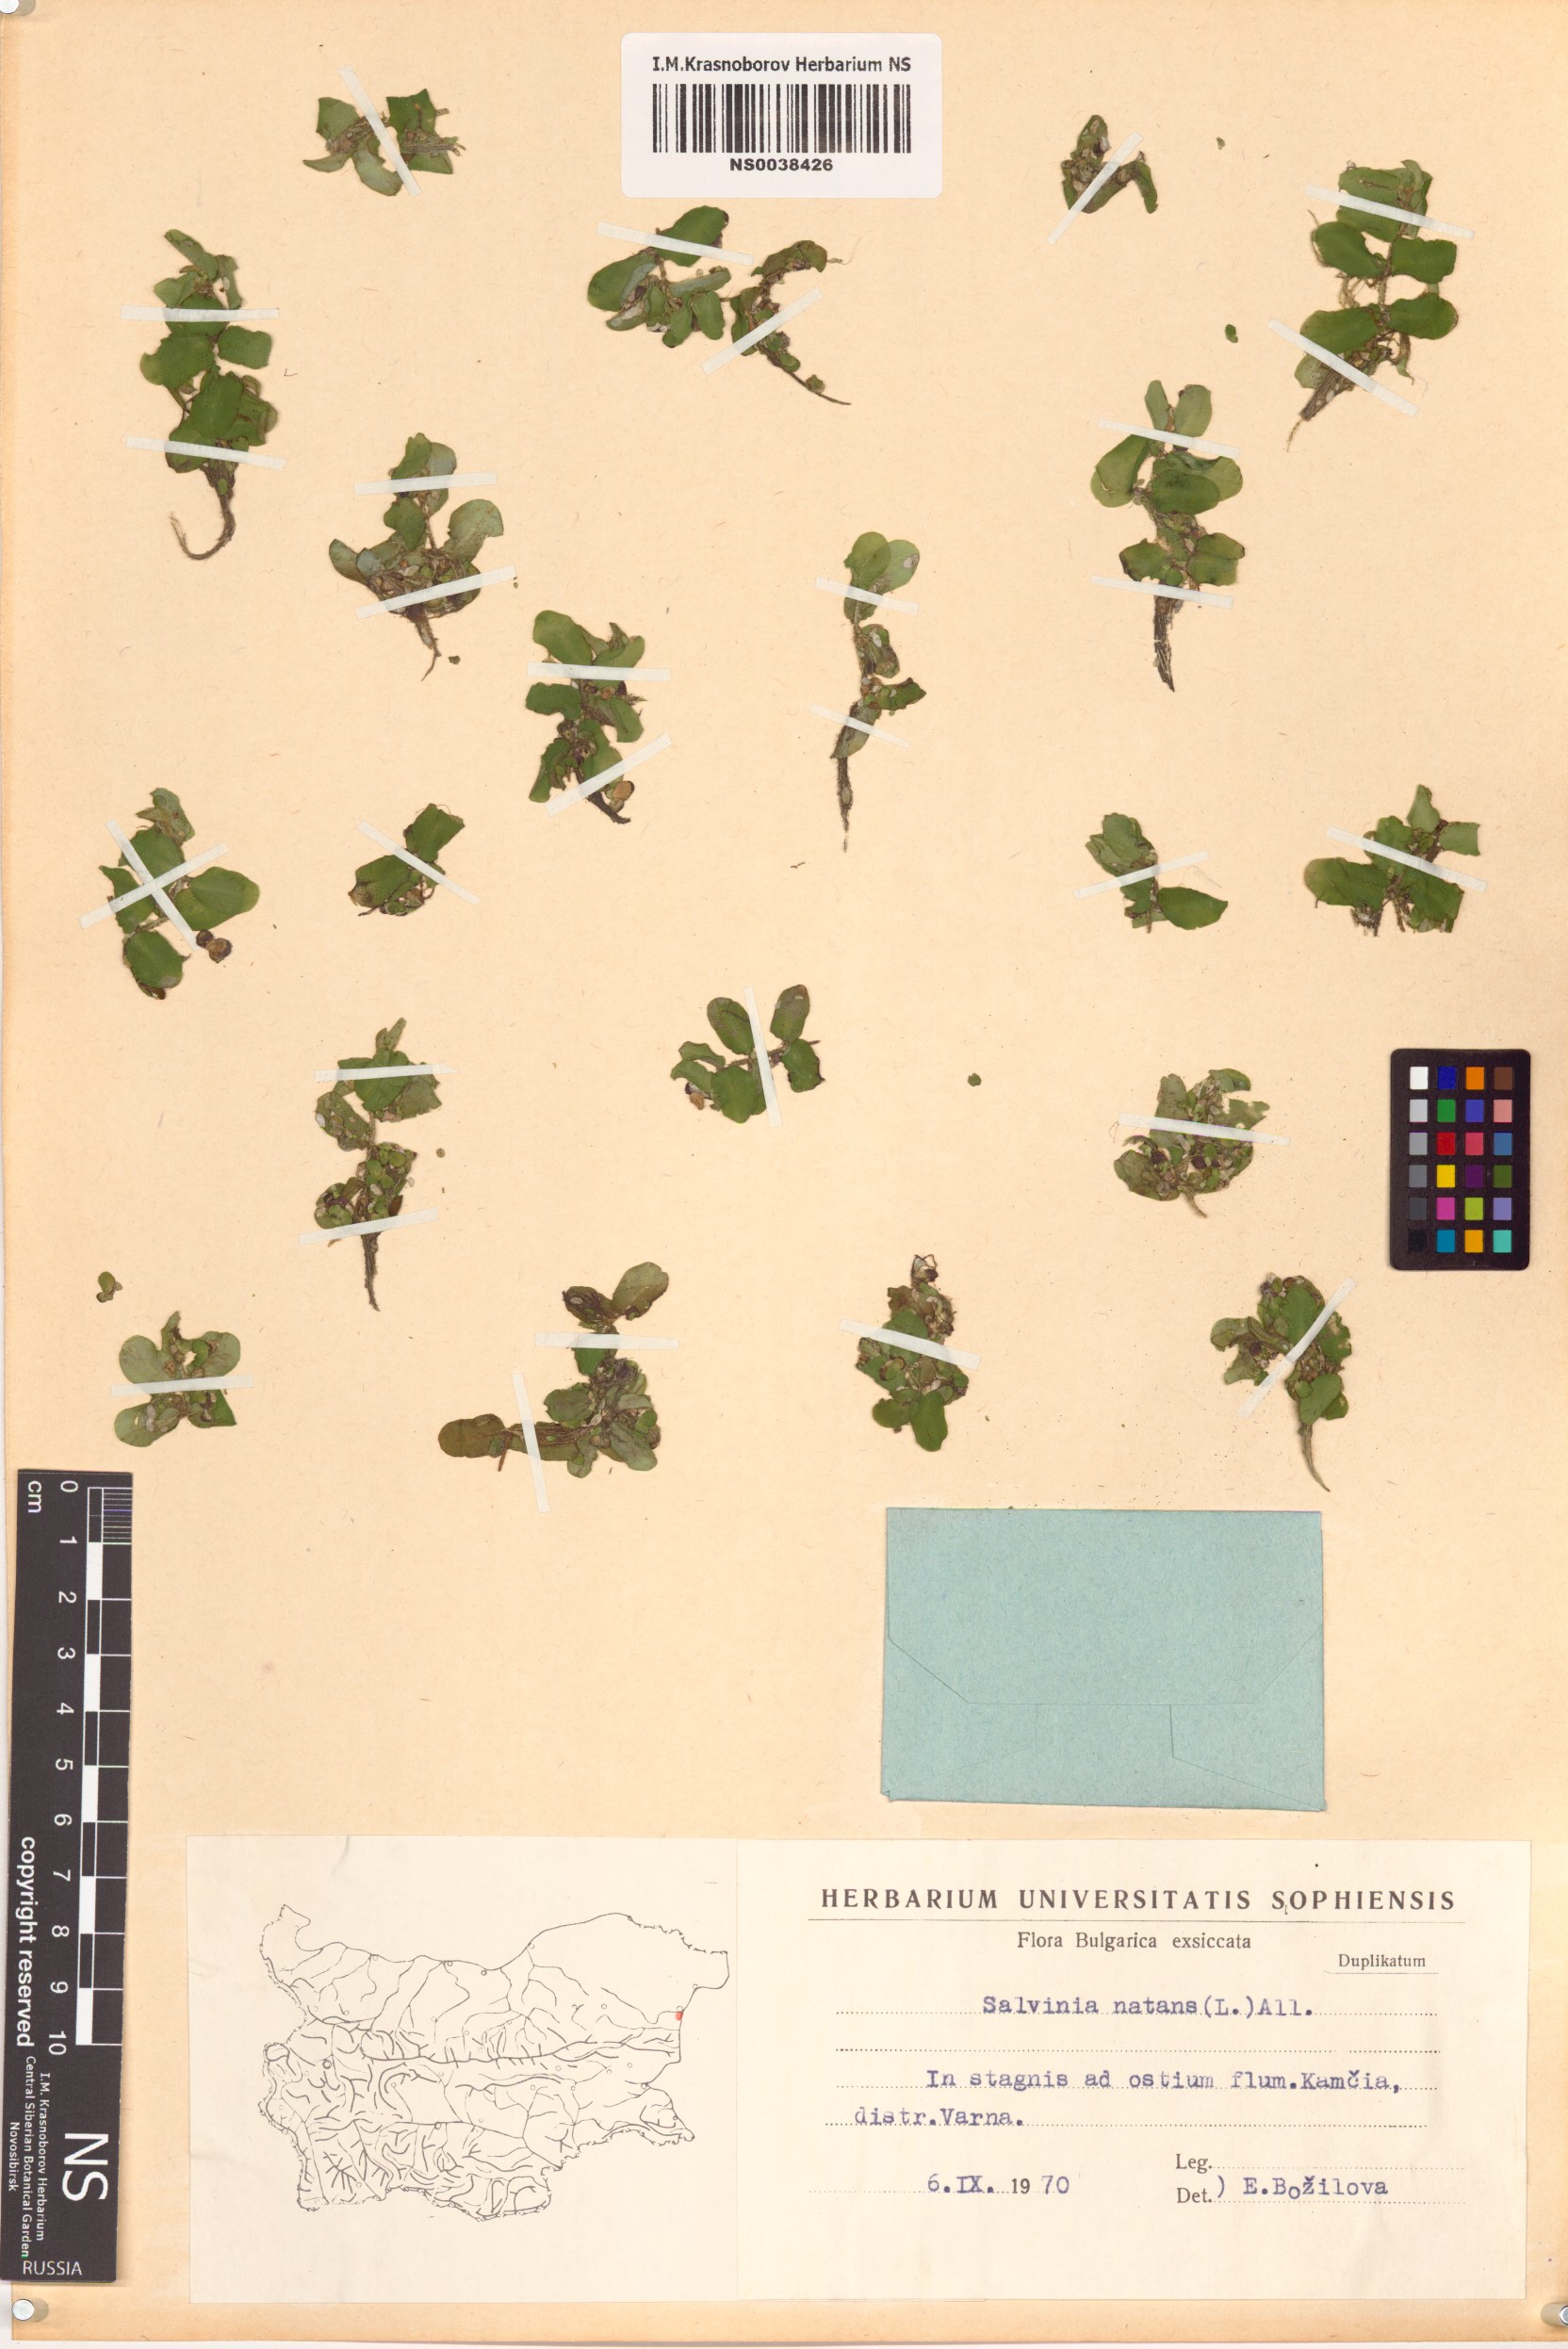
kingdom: Plantae
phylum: Tracheophyta
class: Polypodiopsida
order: Salviniales
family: Salviniaceae
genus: Salvinia
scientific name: Salvinia natans
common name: Floating fern
